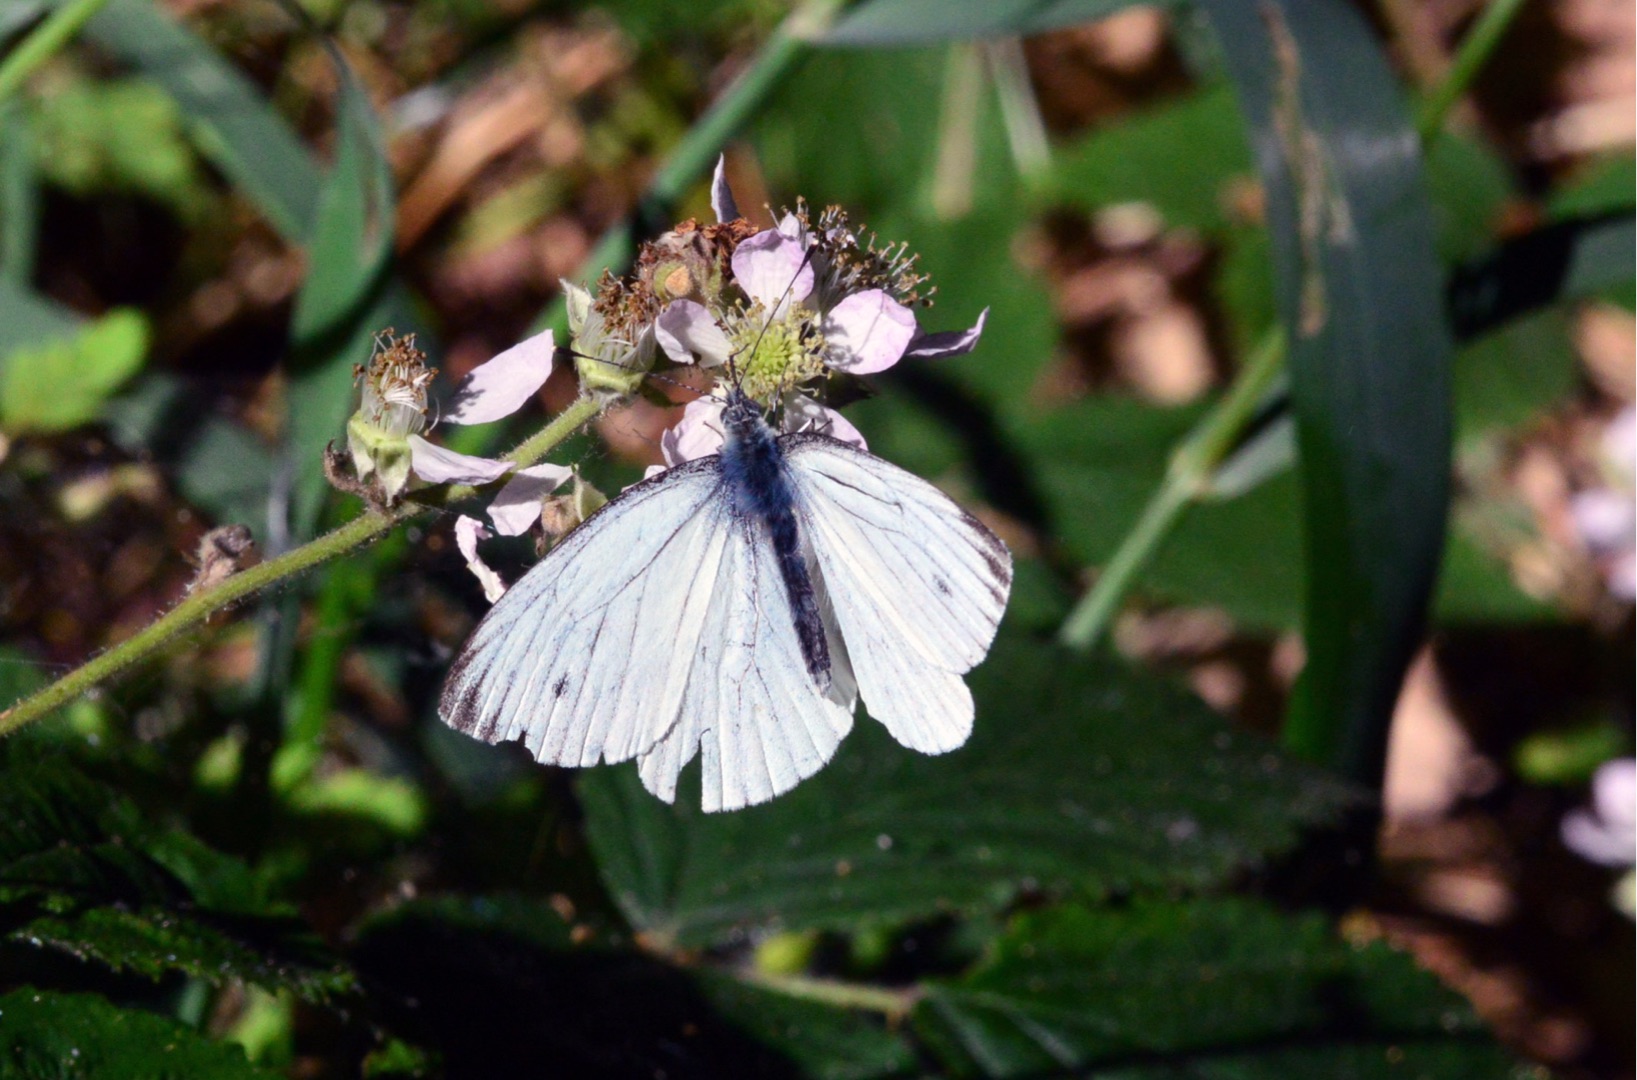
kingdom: Animalia
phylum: Arthropoda
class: Insecta
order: Lepidoptera
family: Pieridae
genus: Pieris
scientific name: Pieris napi
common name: Grønåret kålsommerfugl
